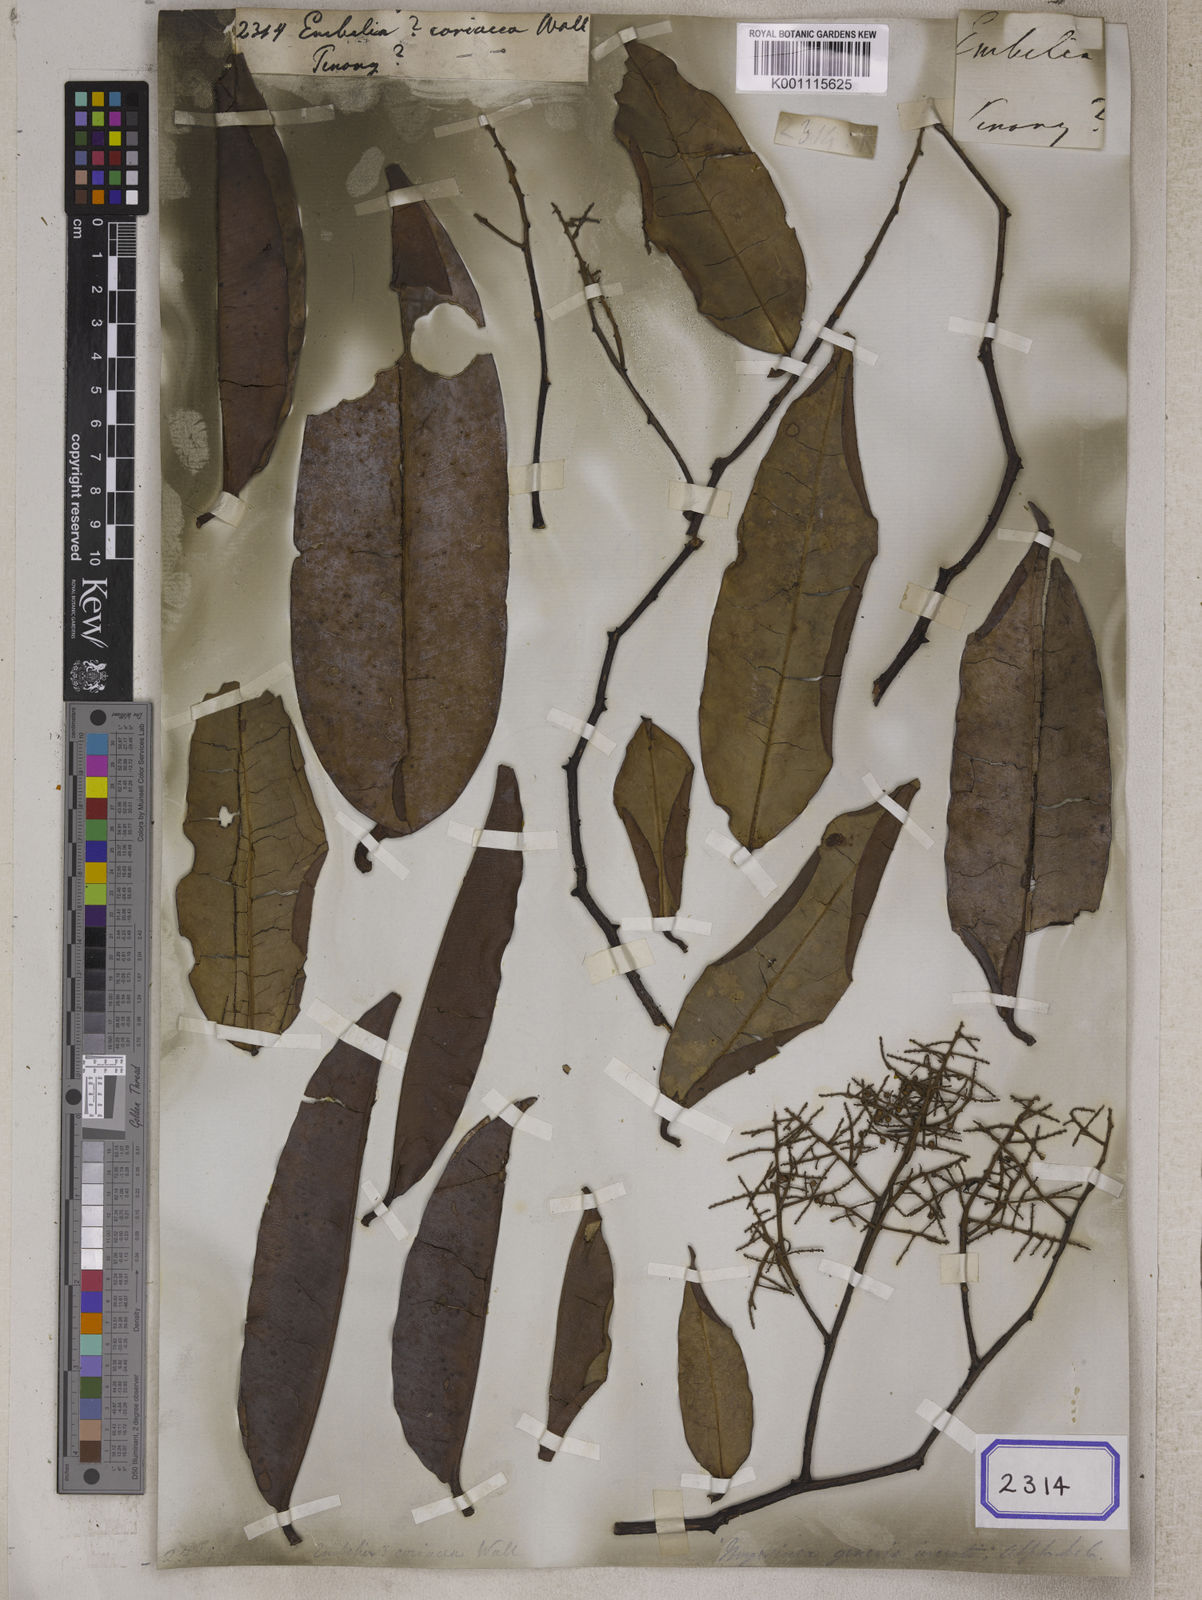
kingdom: Plantae
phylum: Tracheophyta
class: Magnoliopsida
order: Ericales
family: Primulaceae
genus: Embelia
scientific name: Embelia
